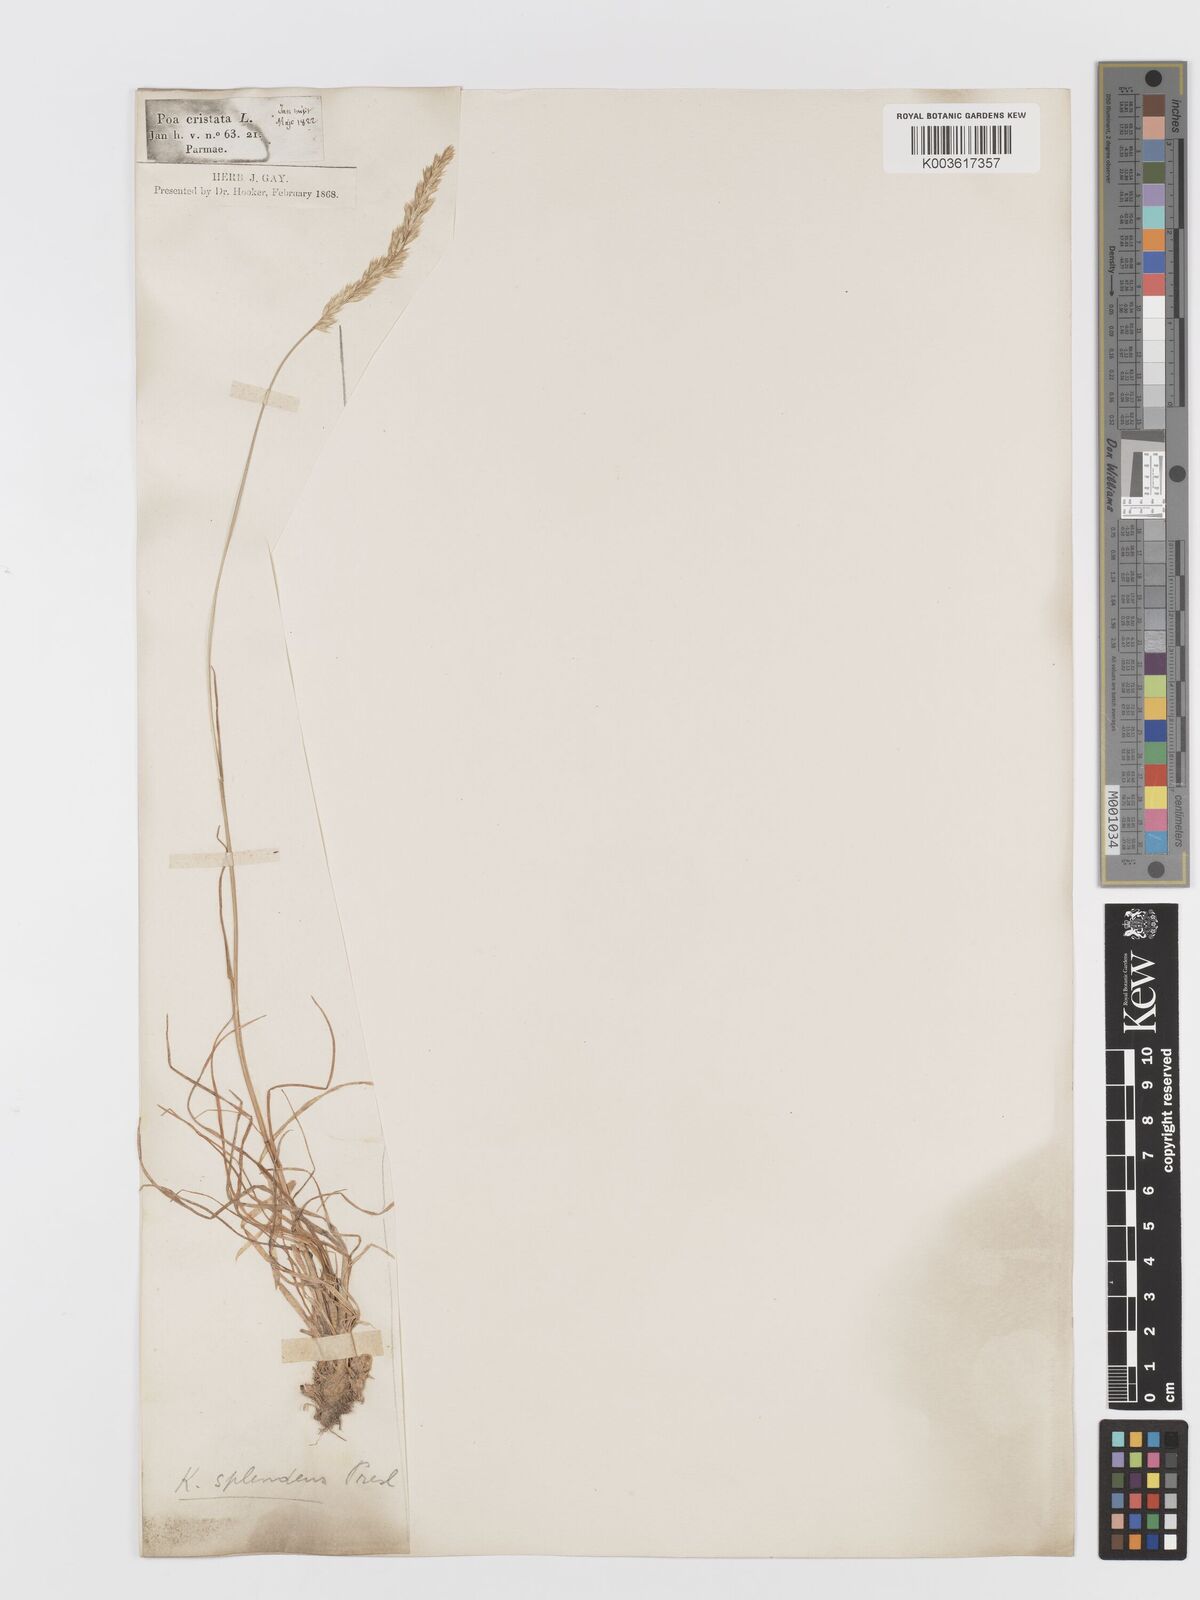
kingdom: Plantae
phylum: Tracheophyta
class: Liliopsida
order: Poales
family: Poaceae
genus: Koeleria
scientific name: Koeleria splendens
